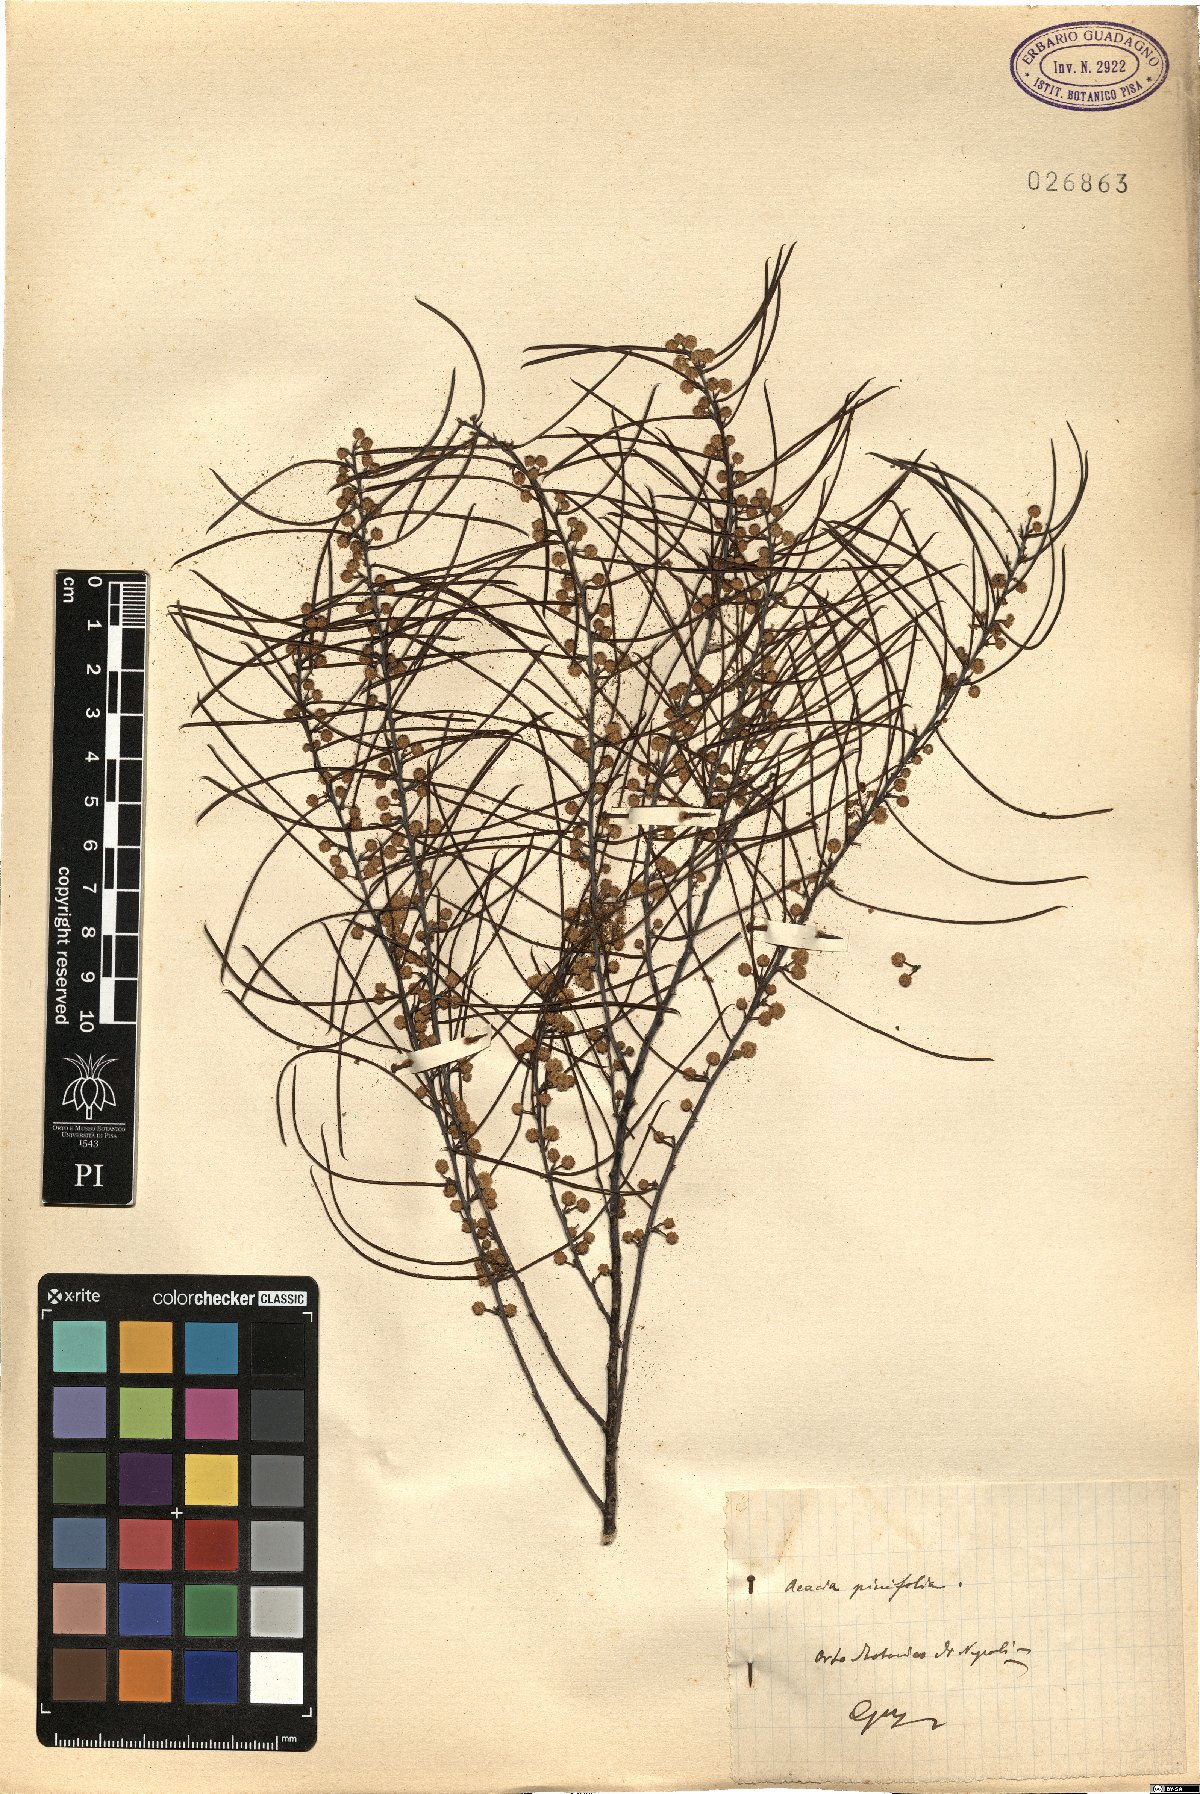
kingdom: Plantae
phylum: Tracheophyta
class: Magnoliopsida
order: Fabales
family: Fabaceae
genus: Acacia
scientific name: Acacia juncifolia
